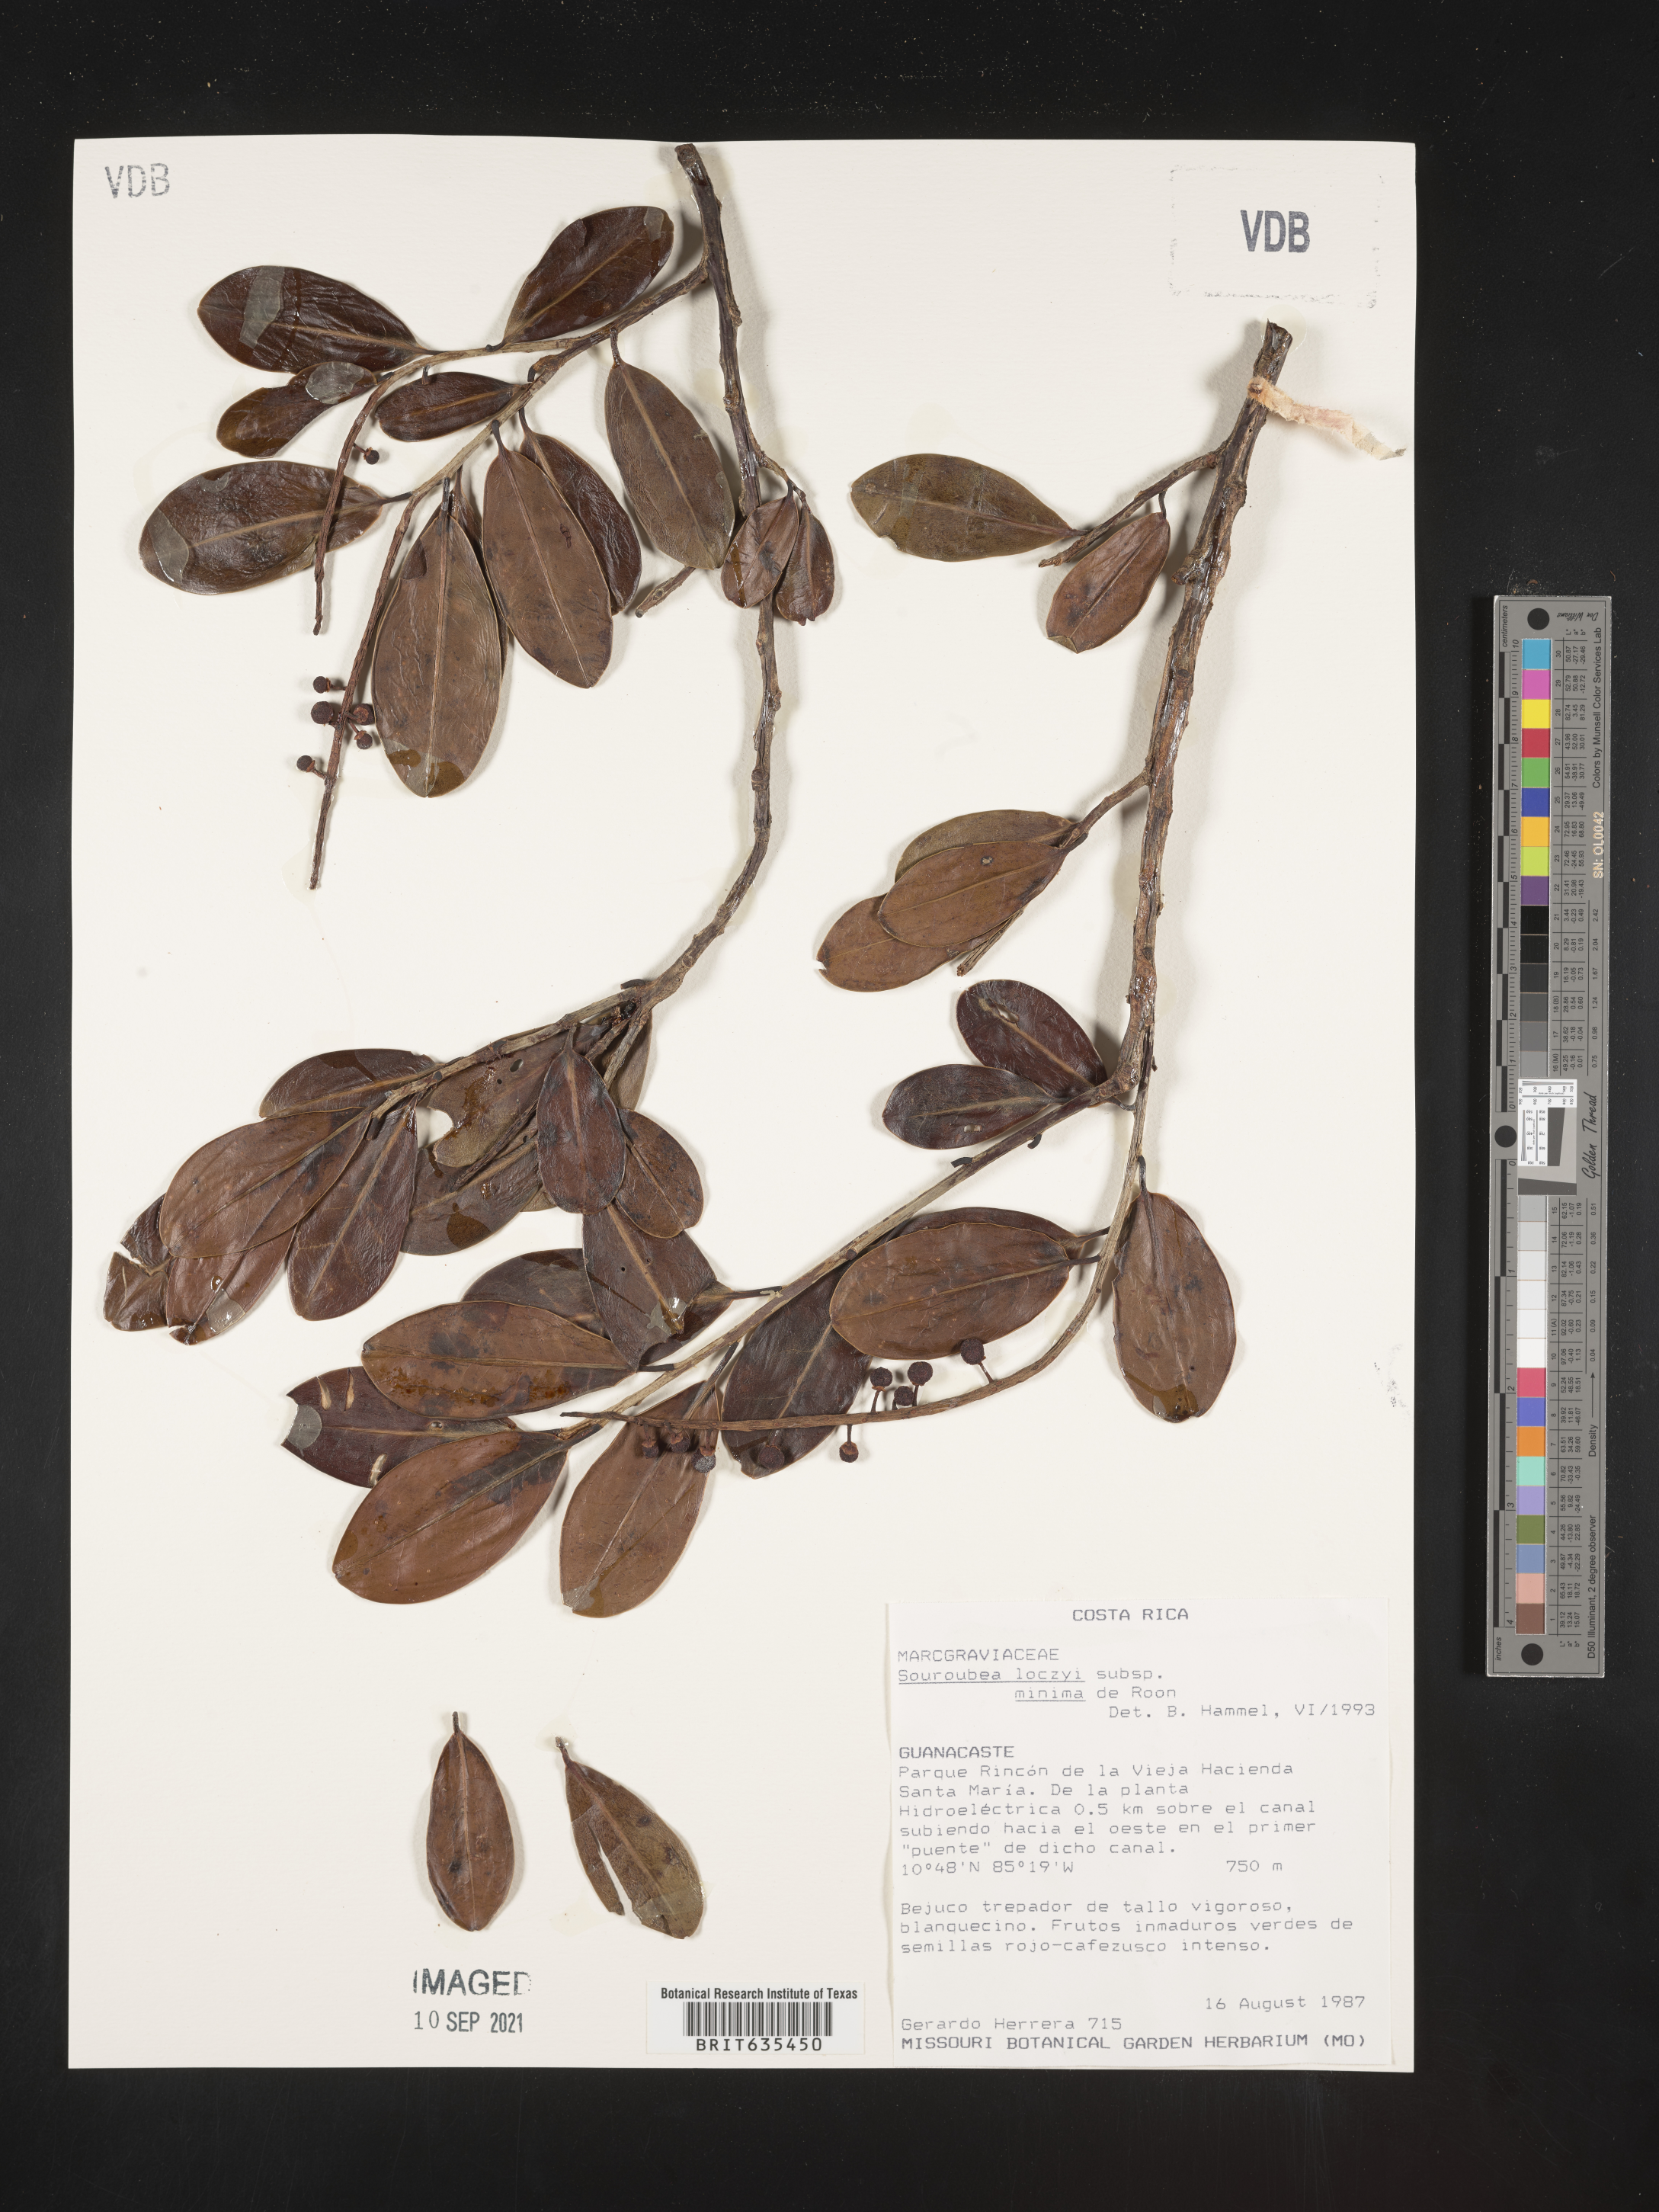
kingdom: Plantae
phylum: Tracheophyta
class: Magnoliopsida
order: Ericales
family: Marcgraviaceae
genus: Souroubea
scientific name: Souroubea
